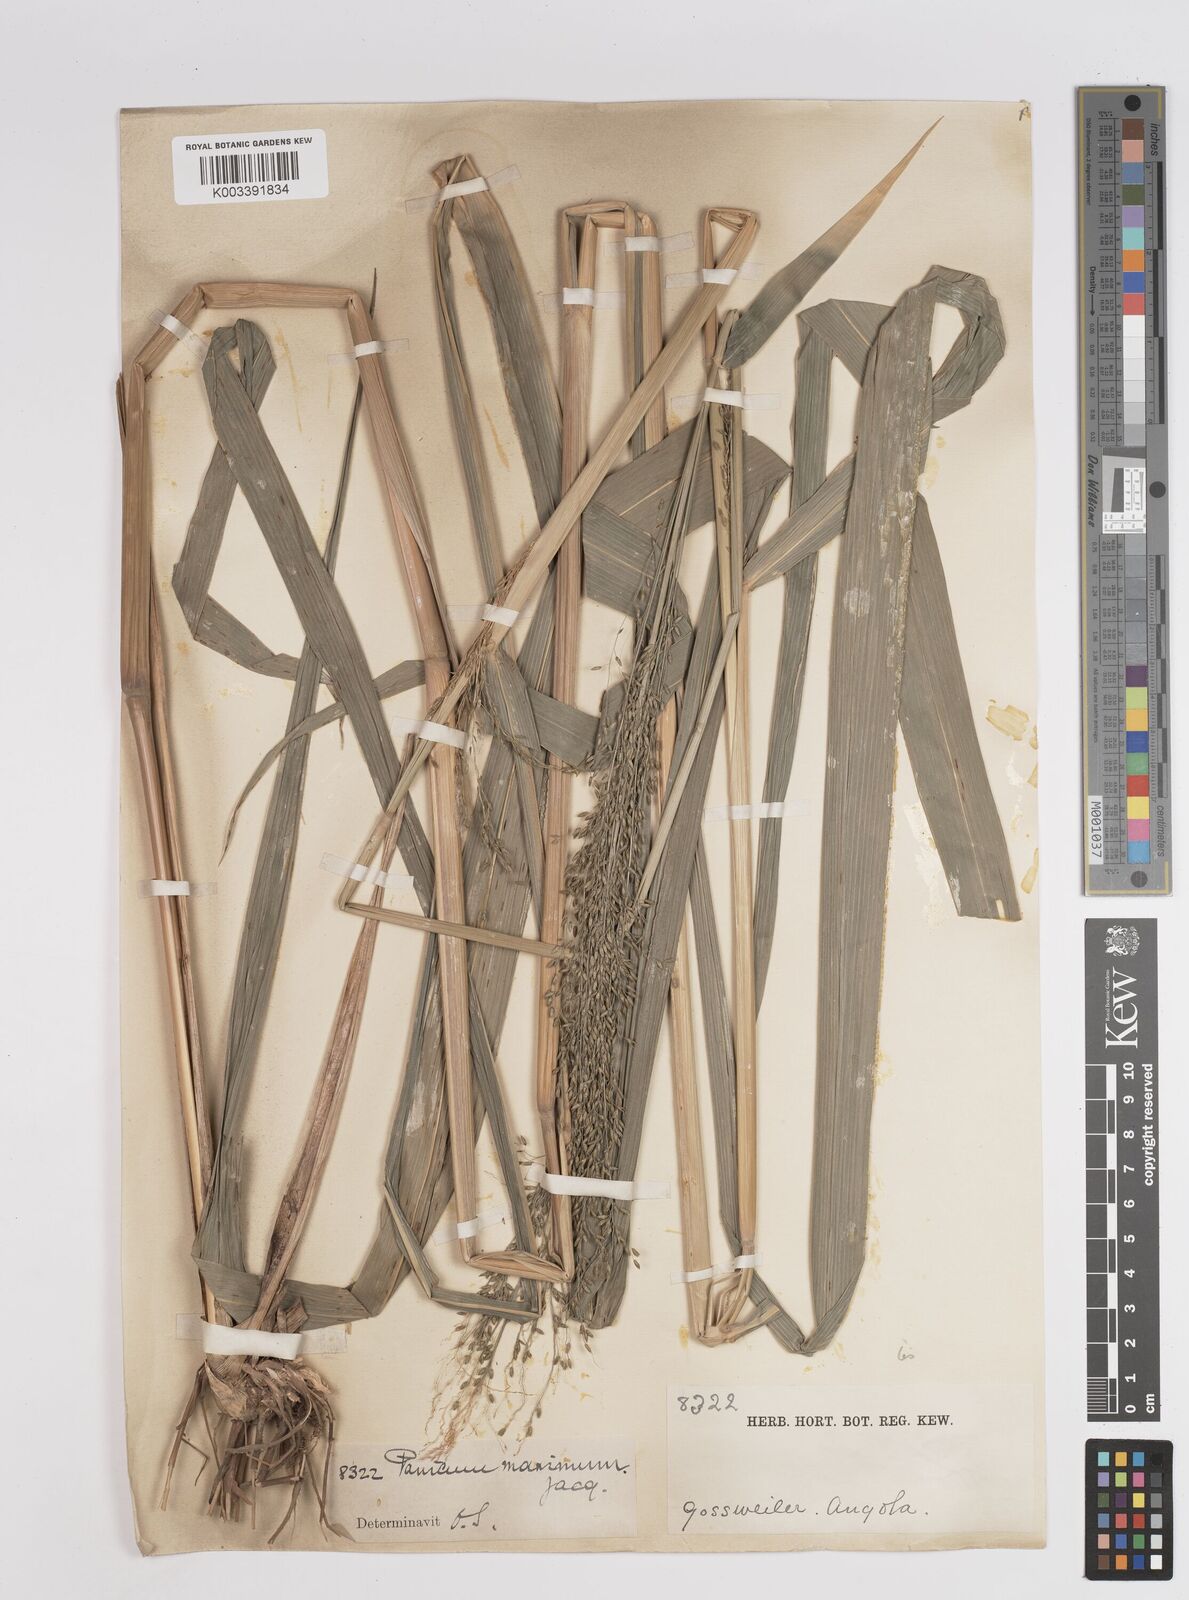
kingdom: Plantae
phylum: Tracheophyta
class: Liliopsida
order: Poales
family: Poaceae
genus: Megathyrsus
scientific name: Megathyrsus maximus
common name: Guineagrass
